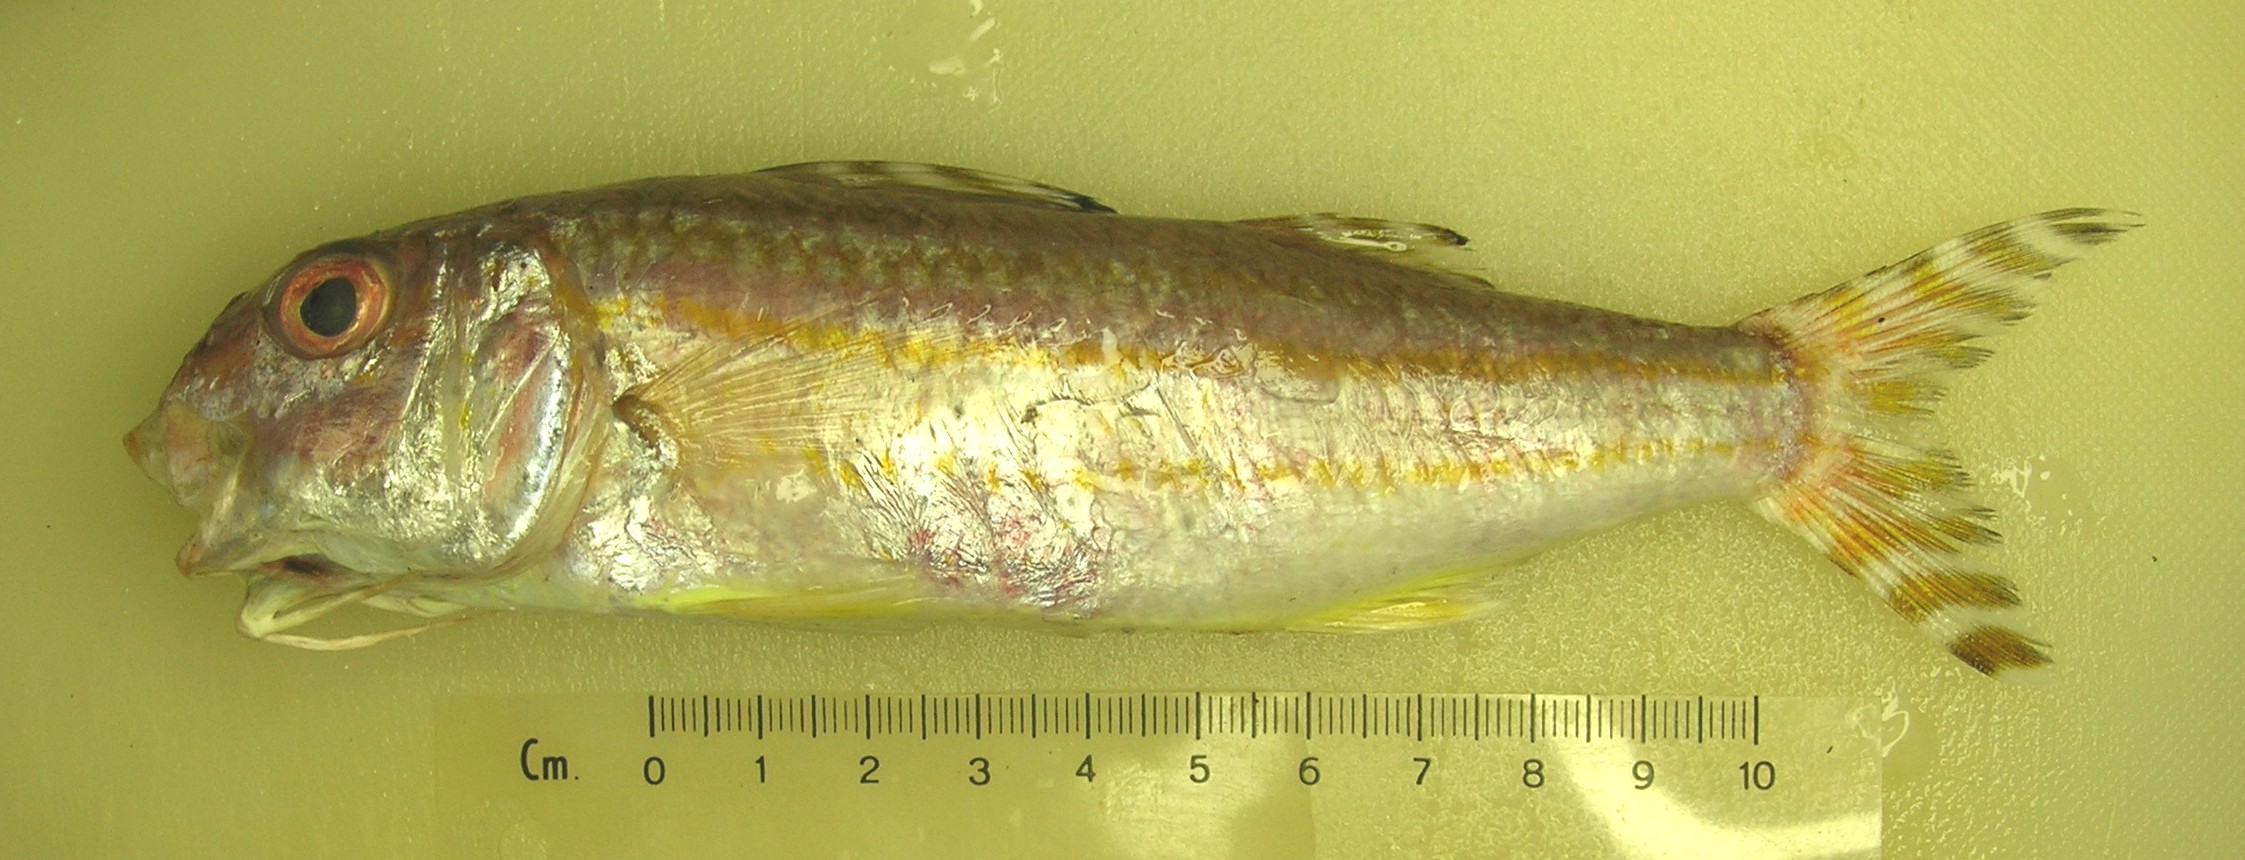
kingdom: Animalia
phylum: Chordata
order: Perciformes
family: Mullidae
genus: Upeneus
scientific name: Upeneus suahelicus
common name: Swahili goatfish
